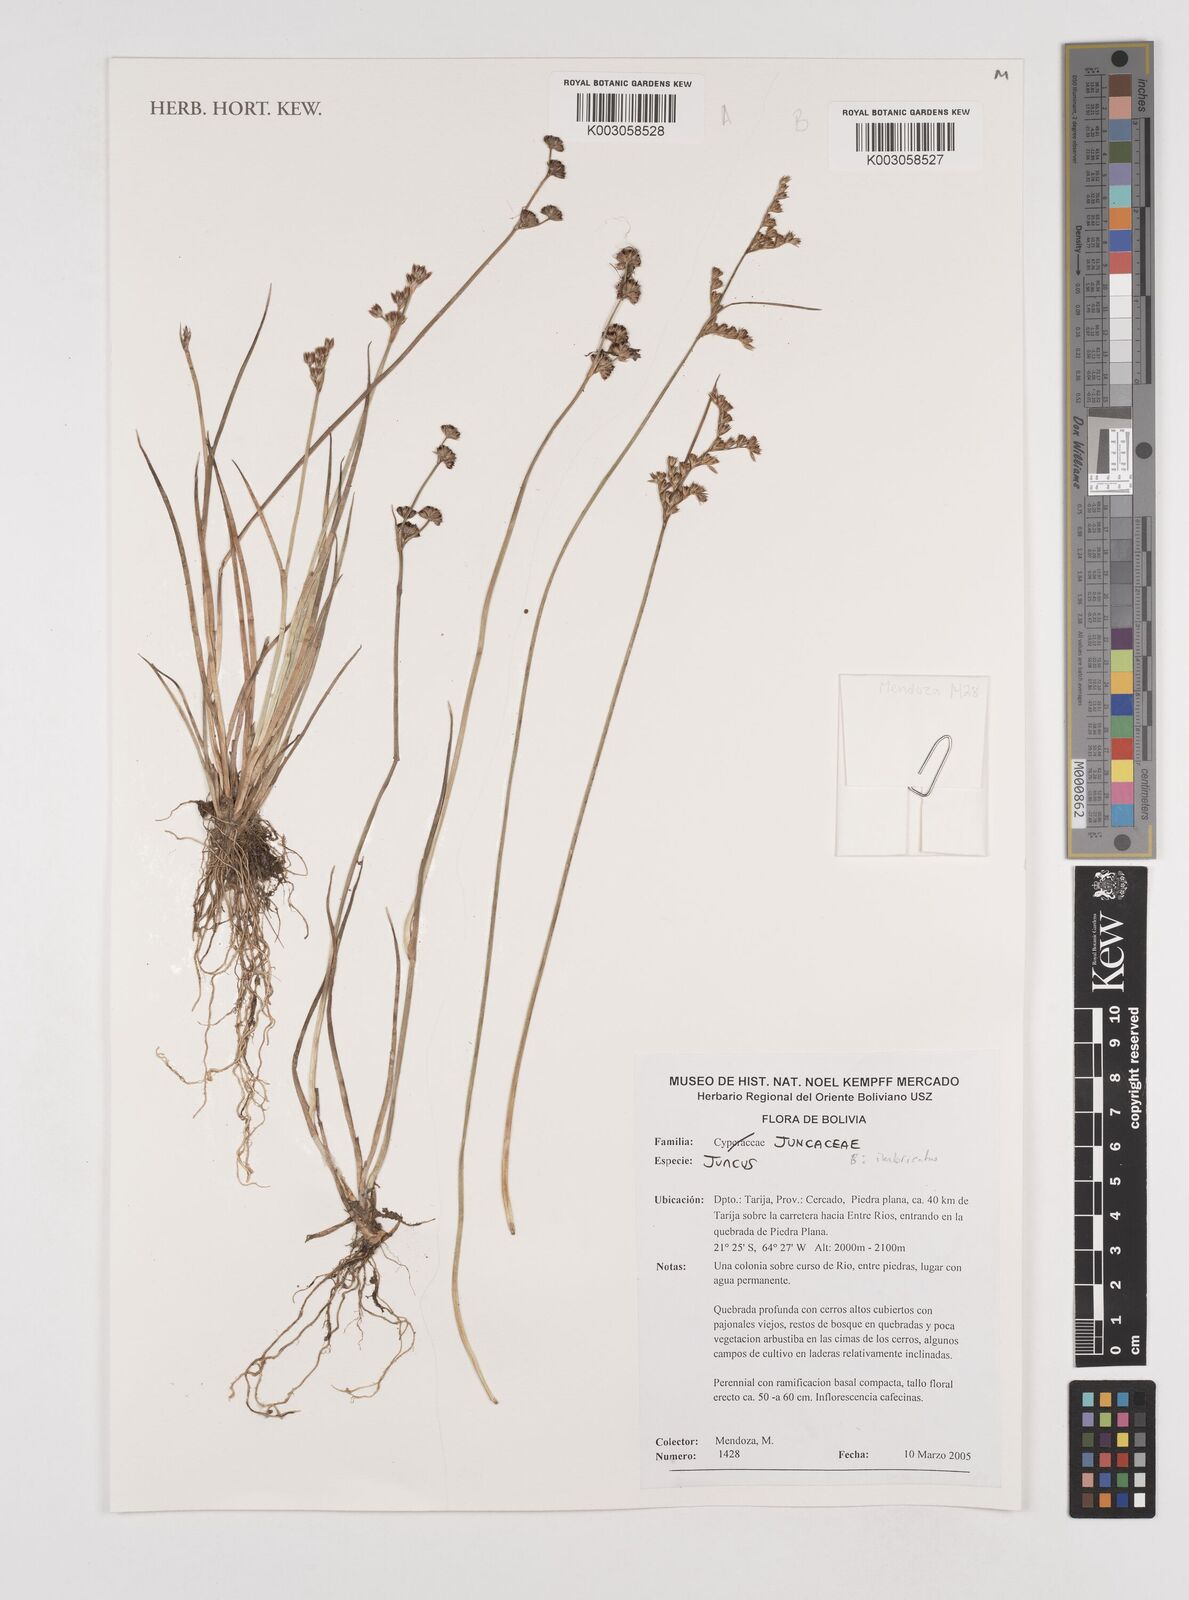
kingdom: Plantae
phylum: Tracheophyta
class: Liliopsida
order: Poales
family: Juncaceae
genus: Juncus
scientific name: Juncus imbricatus
